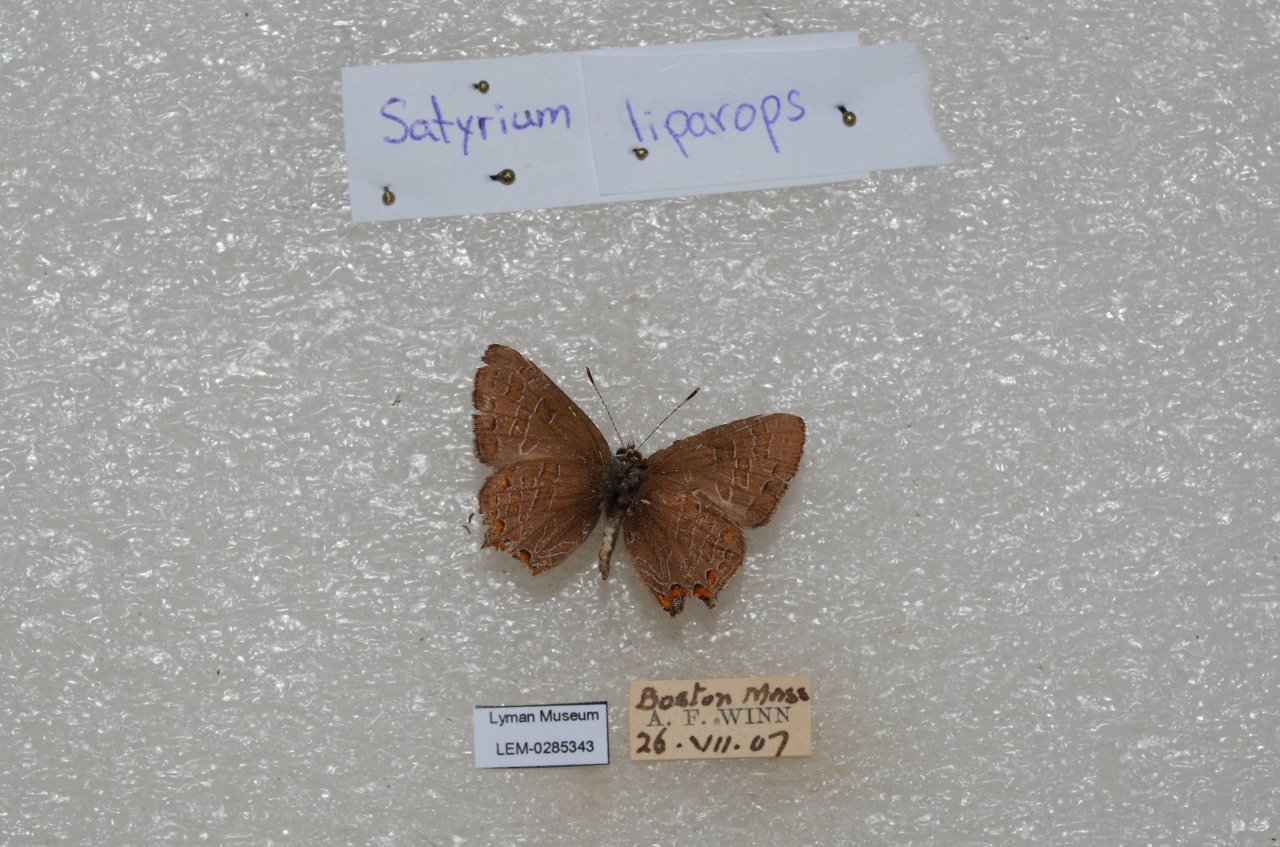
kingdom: Animalia
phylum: Arthropoda
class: Insecta
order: Lepidoptera
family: Lycaenidae
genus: Satyrium
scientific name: Satyrium liparops
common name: Striped Hairstreak
